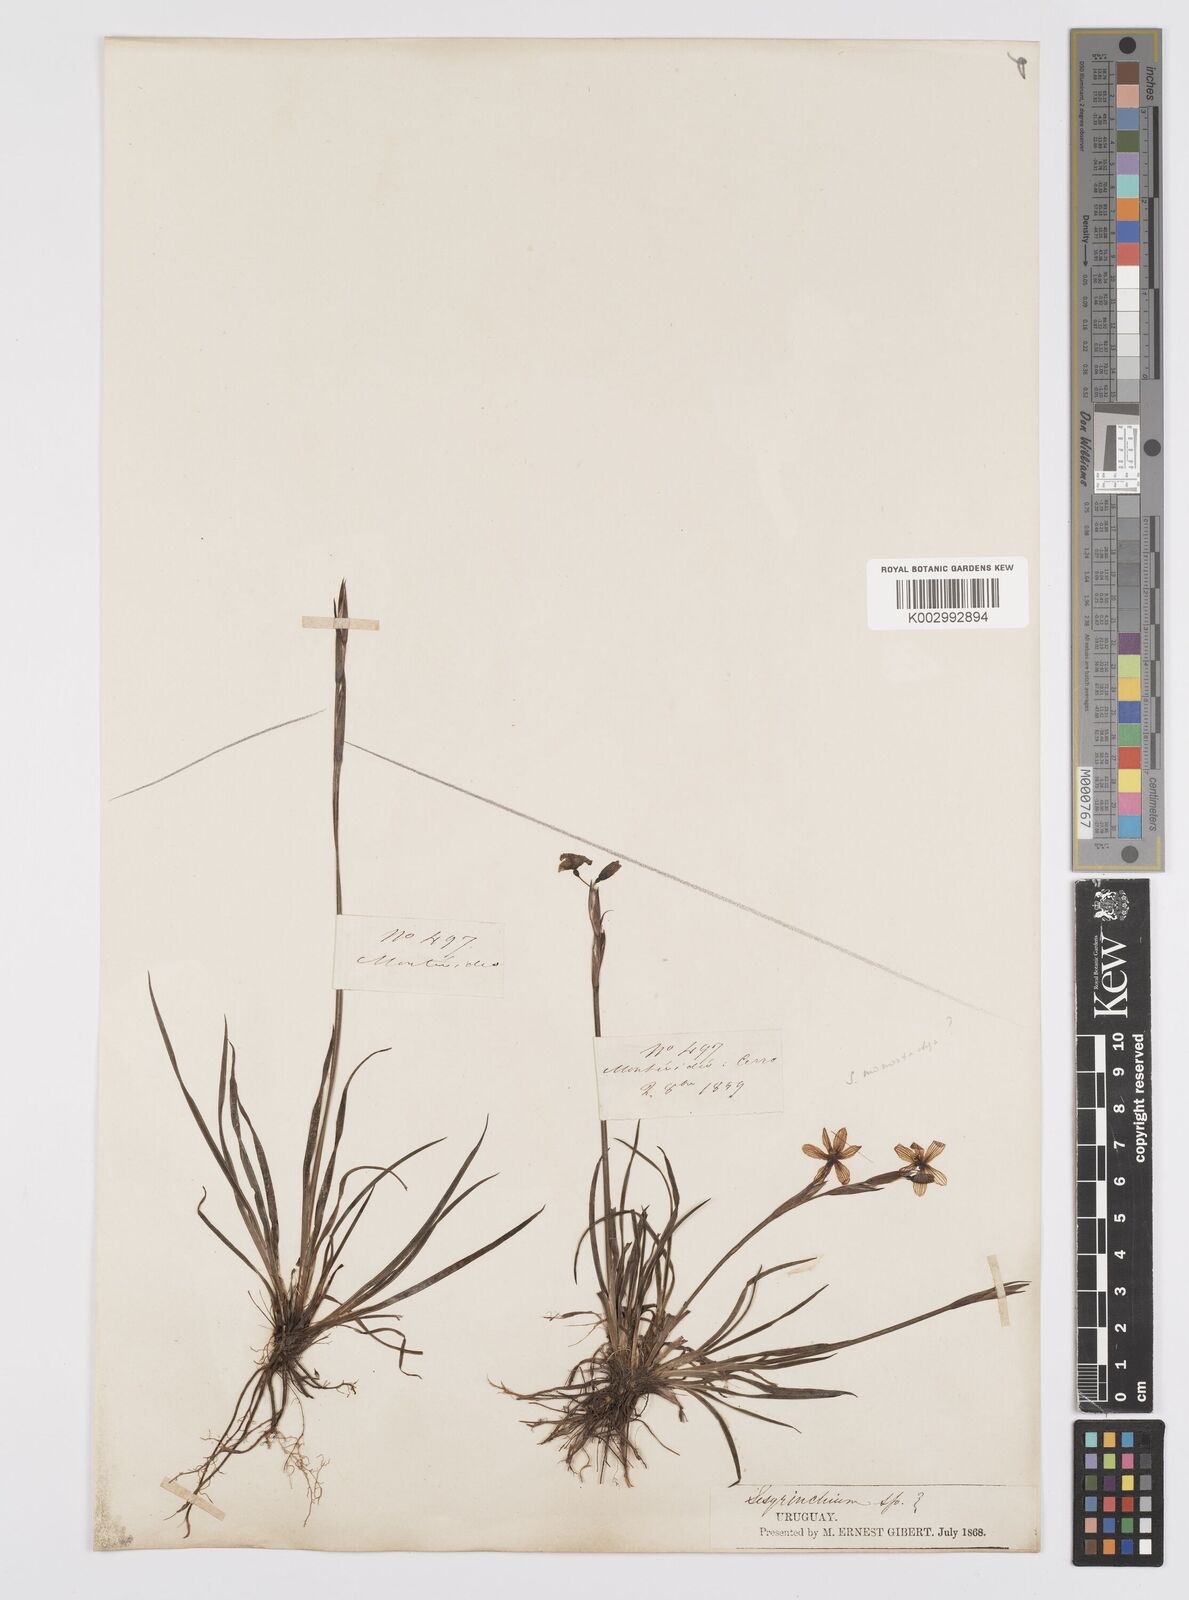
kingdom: Plantae
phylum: Tracheophyta
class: Liliopsida
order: Asparagales
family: Iridaceae
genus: Sisyrinchium
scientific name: Sisyrinchium avenaceum
